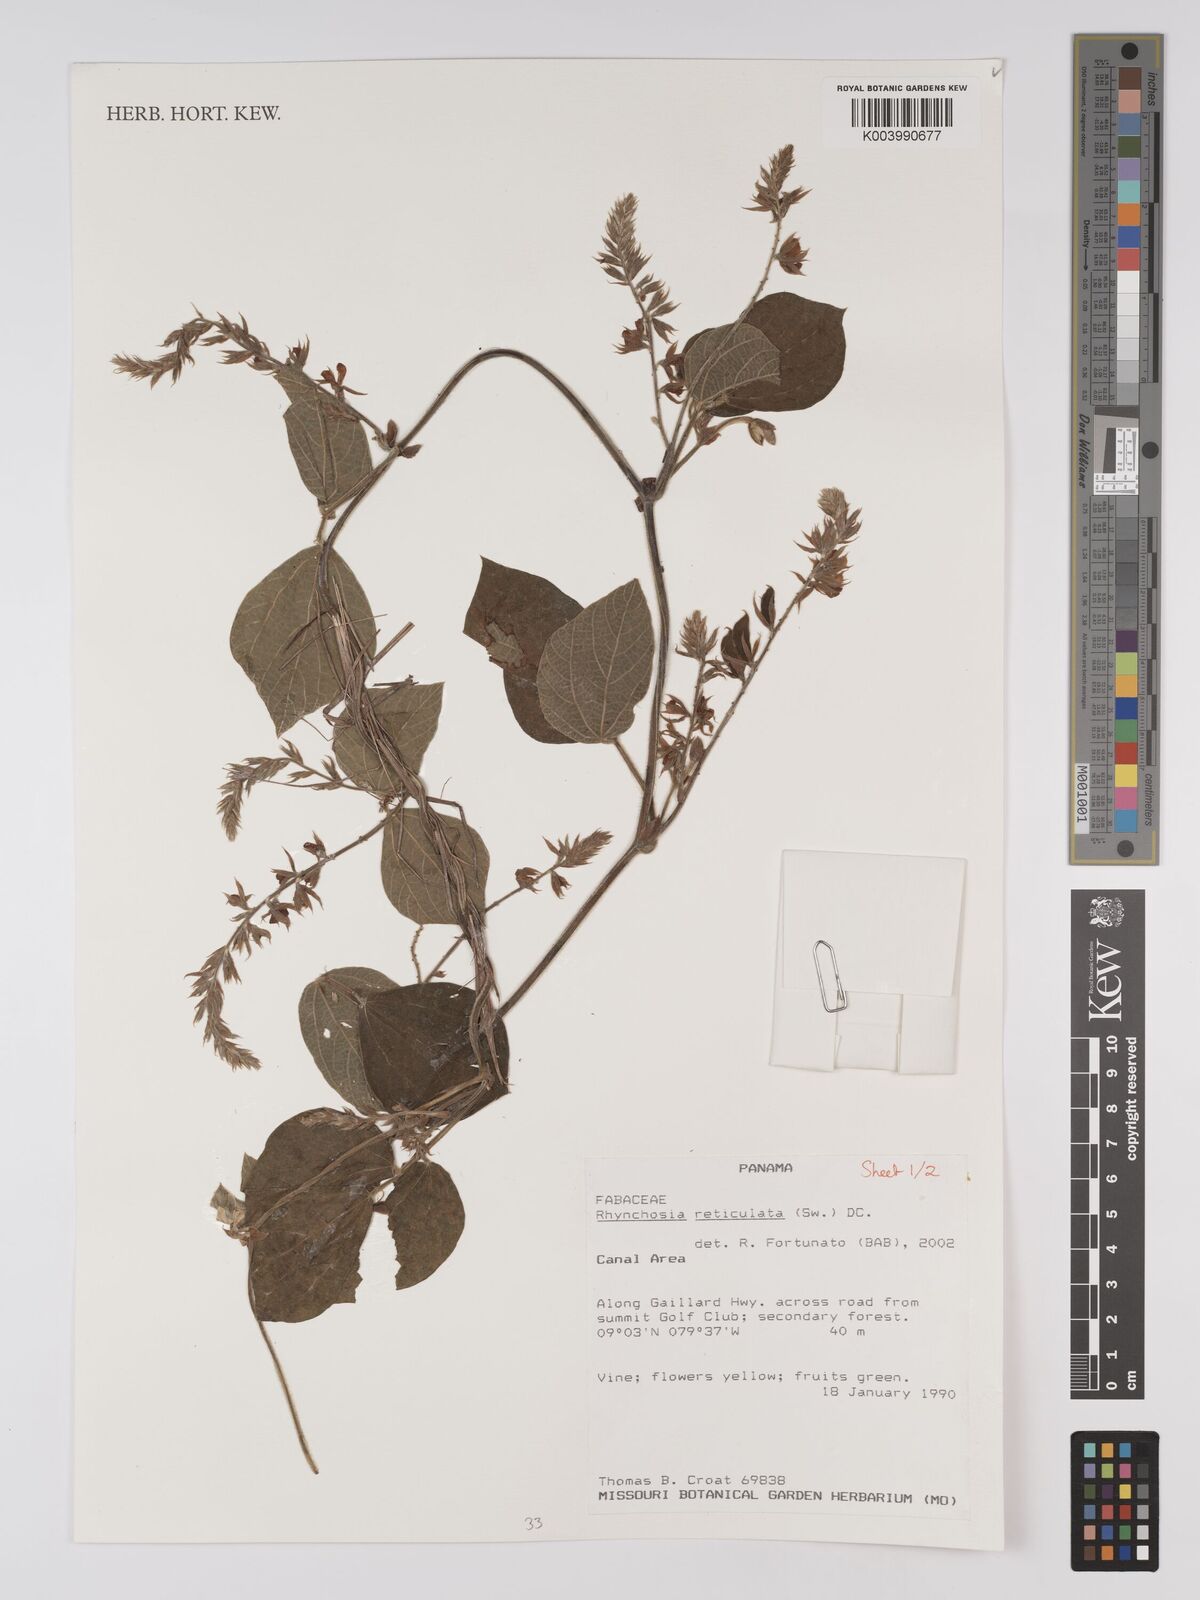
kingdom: Plantae
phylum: Tracheophyta
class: Magnoliopsida
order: Fabales
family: Fabaceae
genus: Rhynchosia
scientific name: Rhynchosia reticulata
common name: Pea withe
